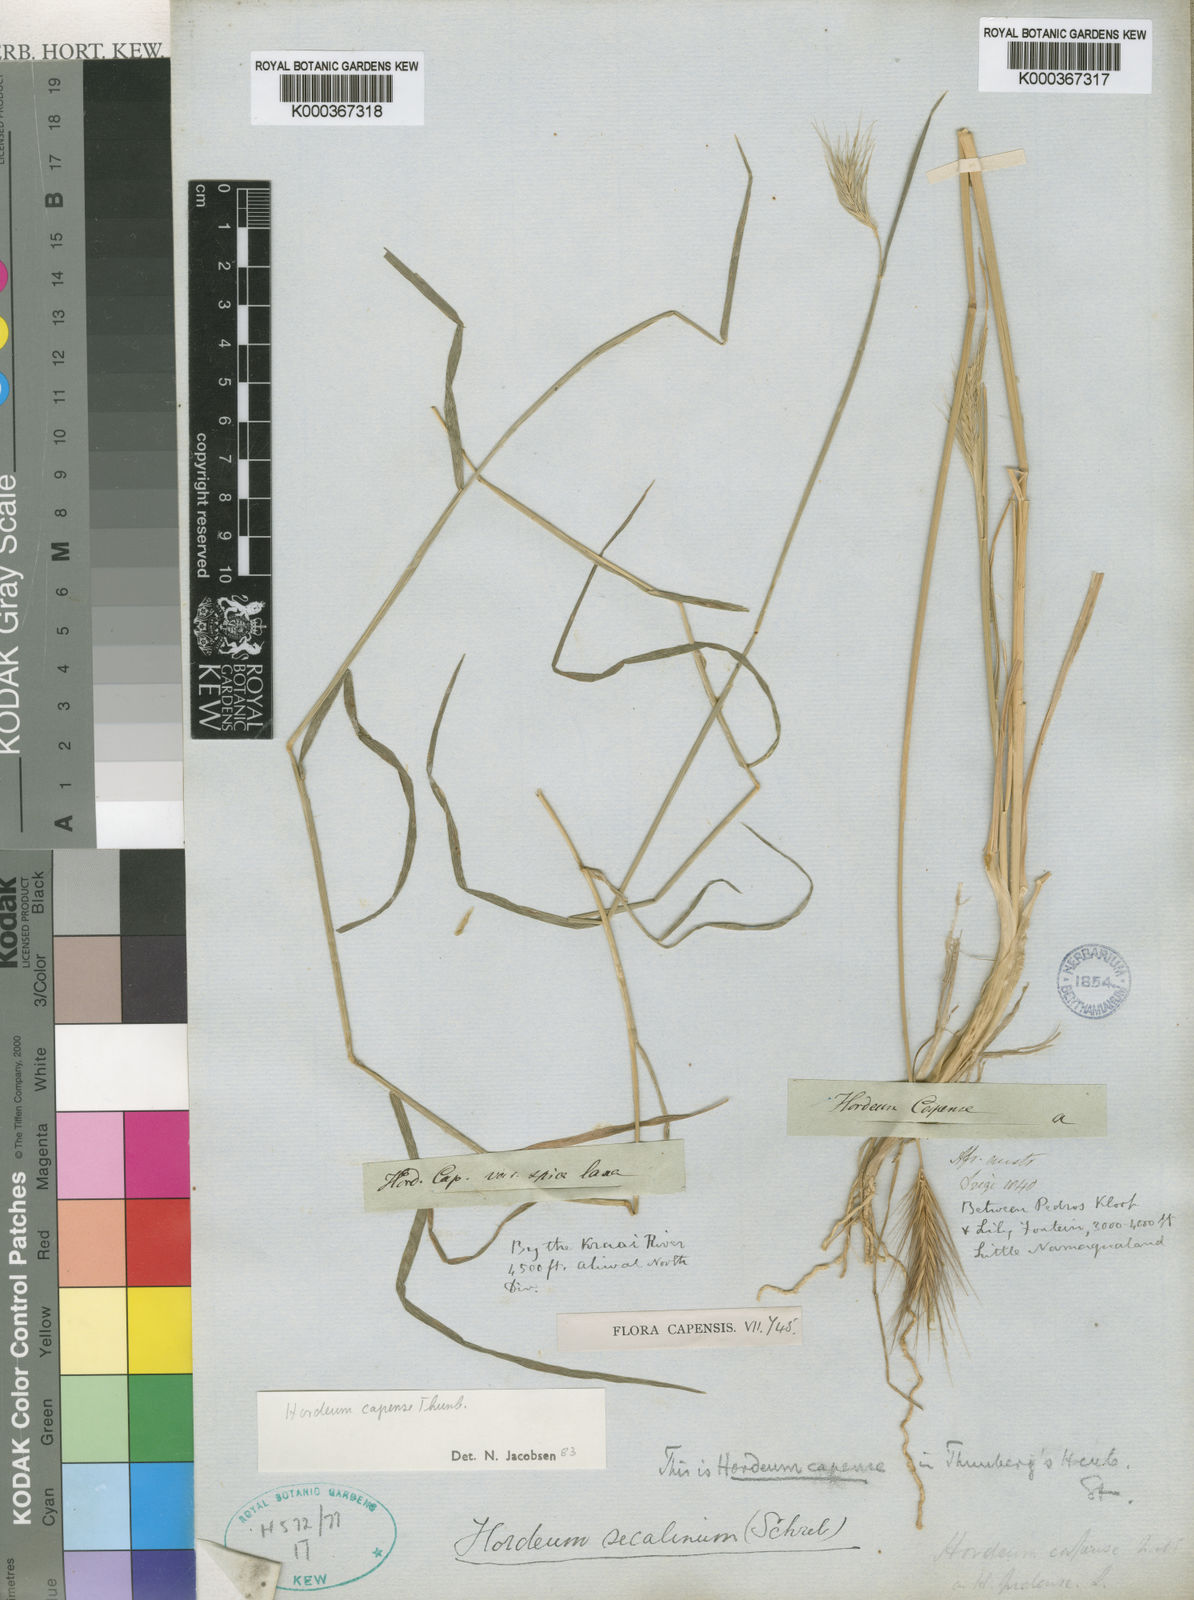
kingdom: Plantae
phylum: Tracheophyta
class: Liliopsida
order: Poales
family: Poaceae
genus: Hordeum
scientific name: Hordeum capense
